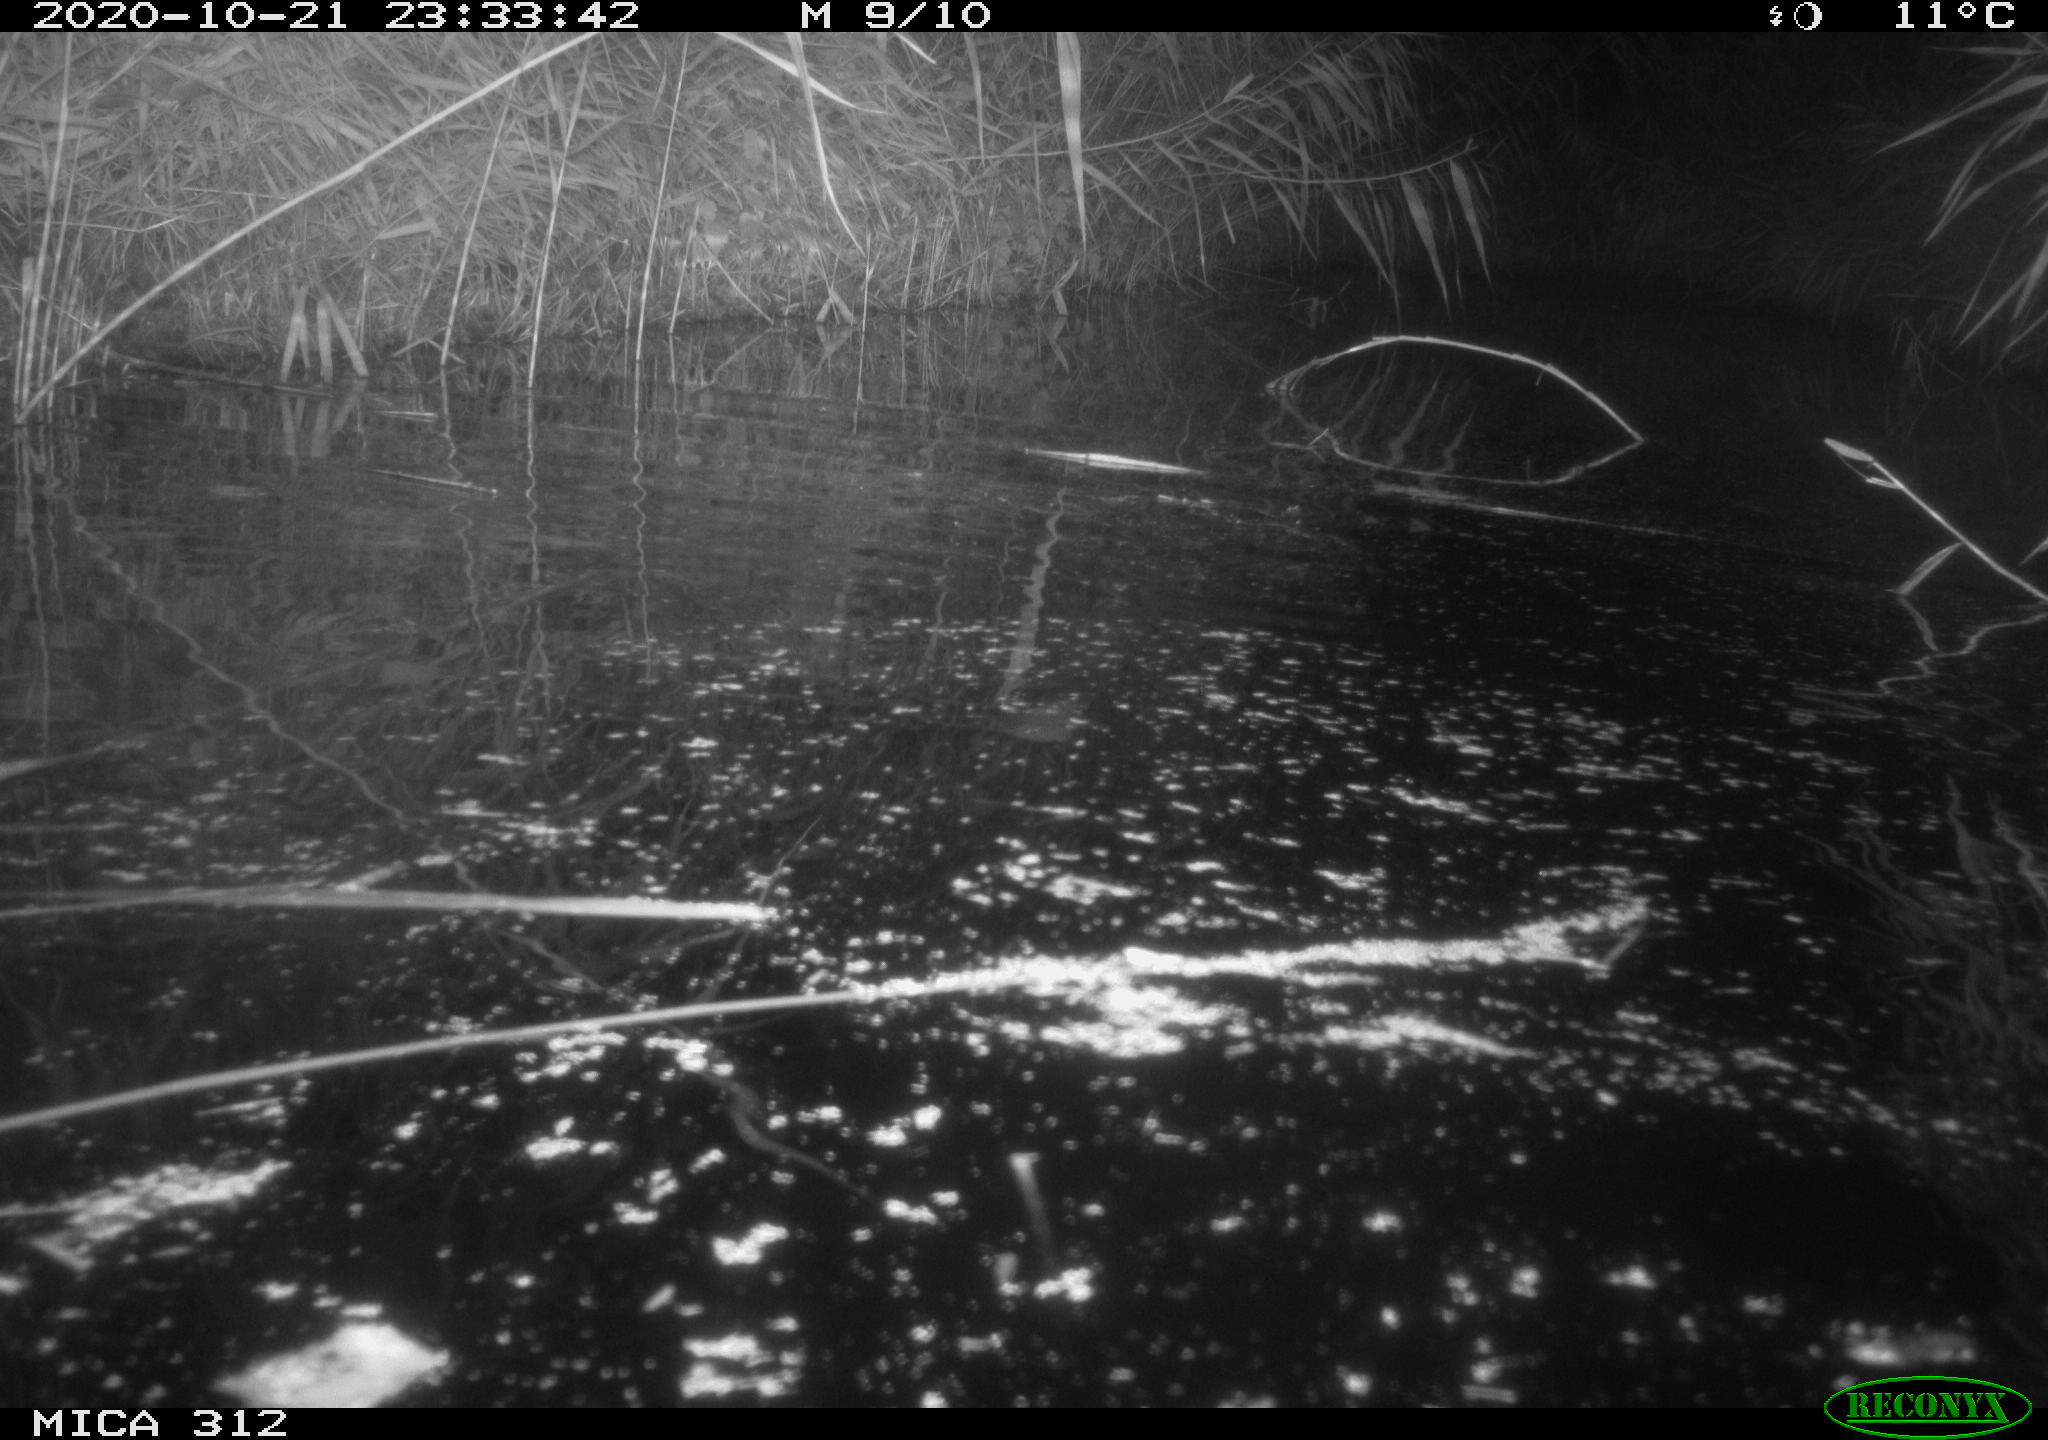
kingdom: Animalia
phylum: Chordata
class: Mammalia
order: Rodentia
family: Muridae
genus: Rattus
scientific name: Rattus norvegicus
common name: Brown rat
